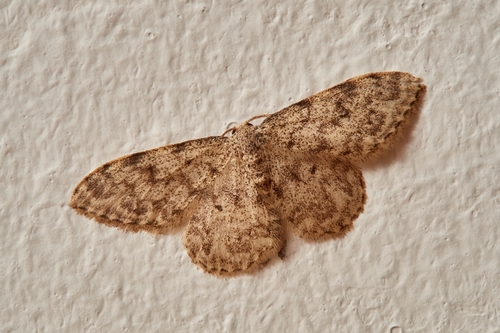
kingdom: Animalia
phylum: Arthropoda
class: Insecta
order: Lepidoptera
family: Geometridae
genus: Idaea
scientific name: Idaea cervantaria
